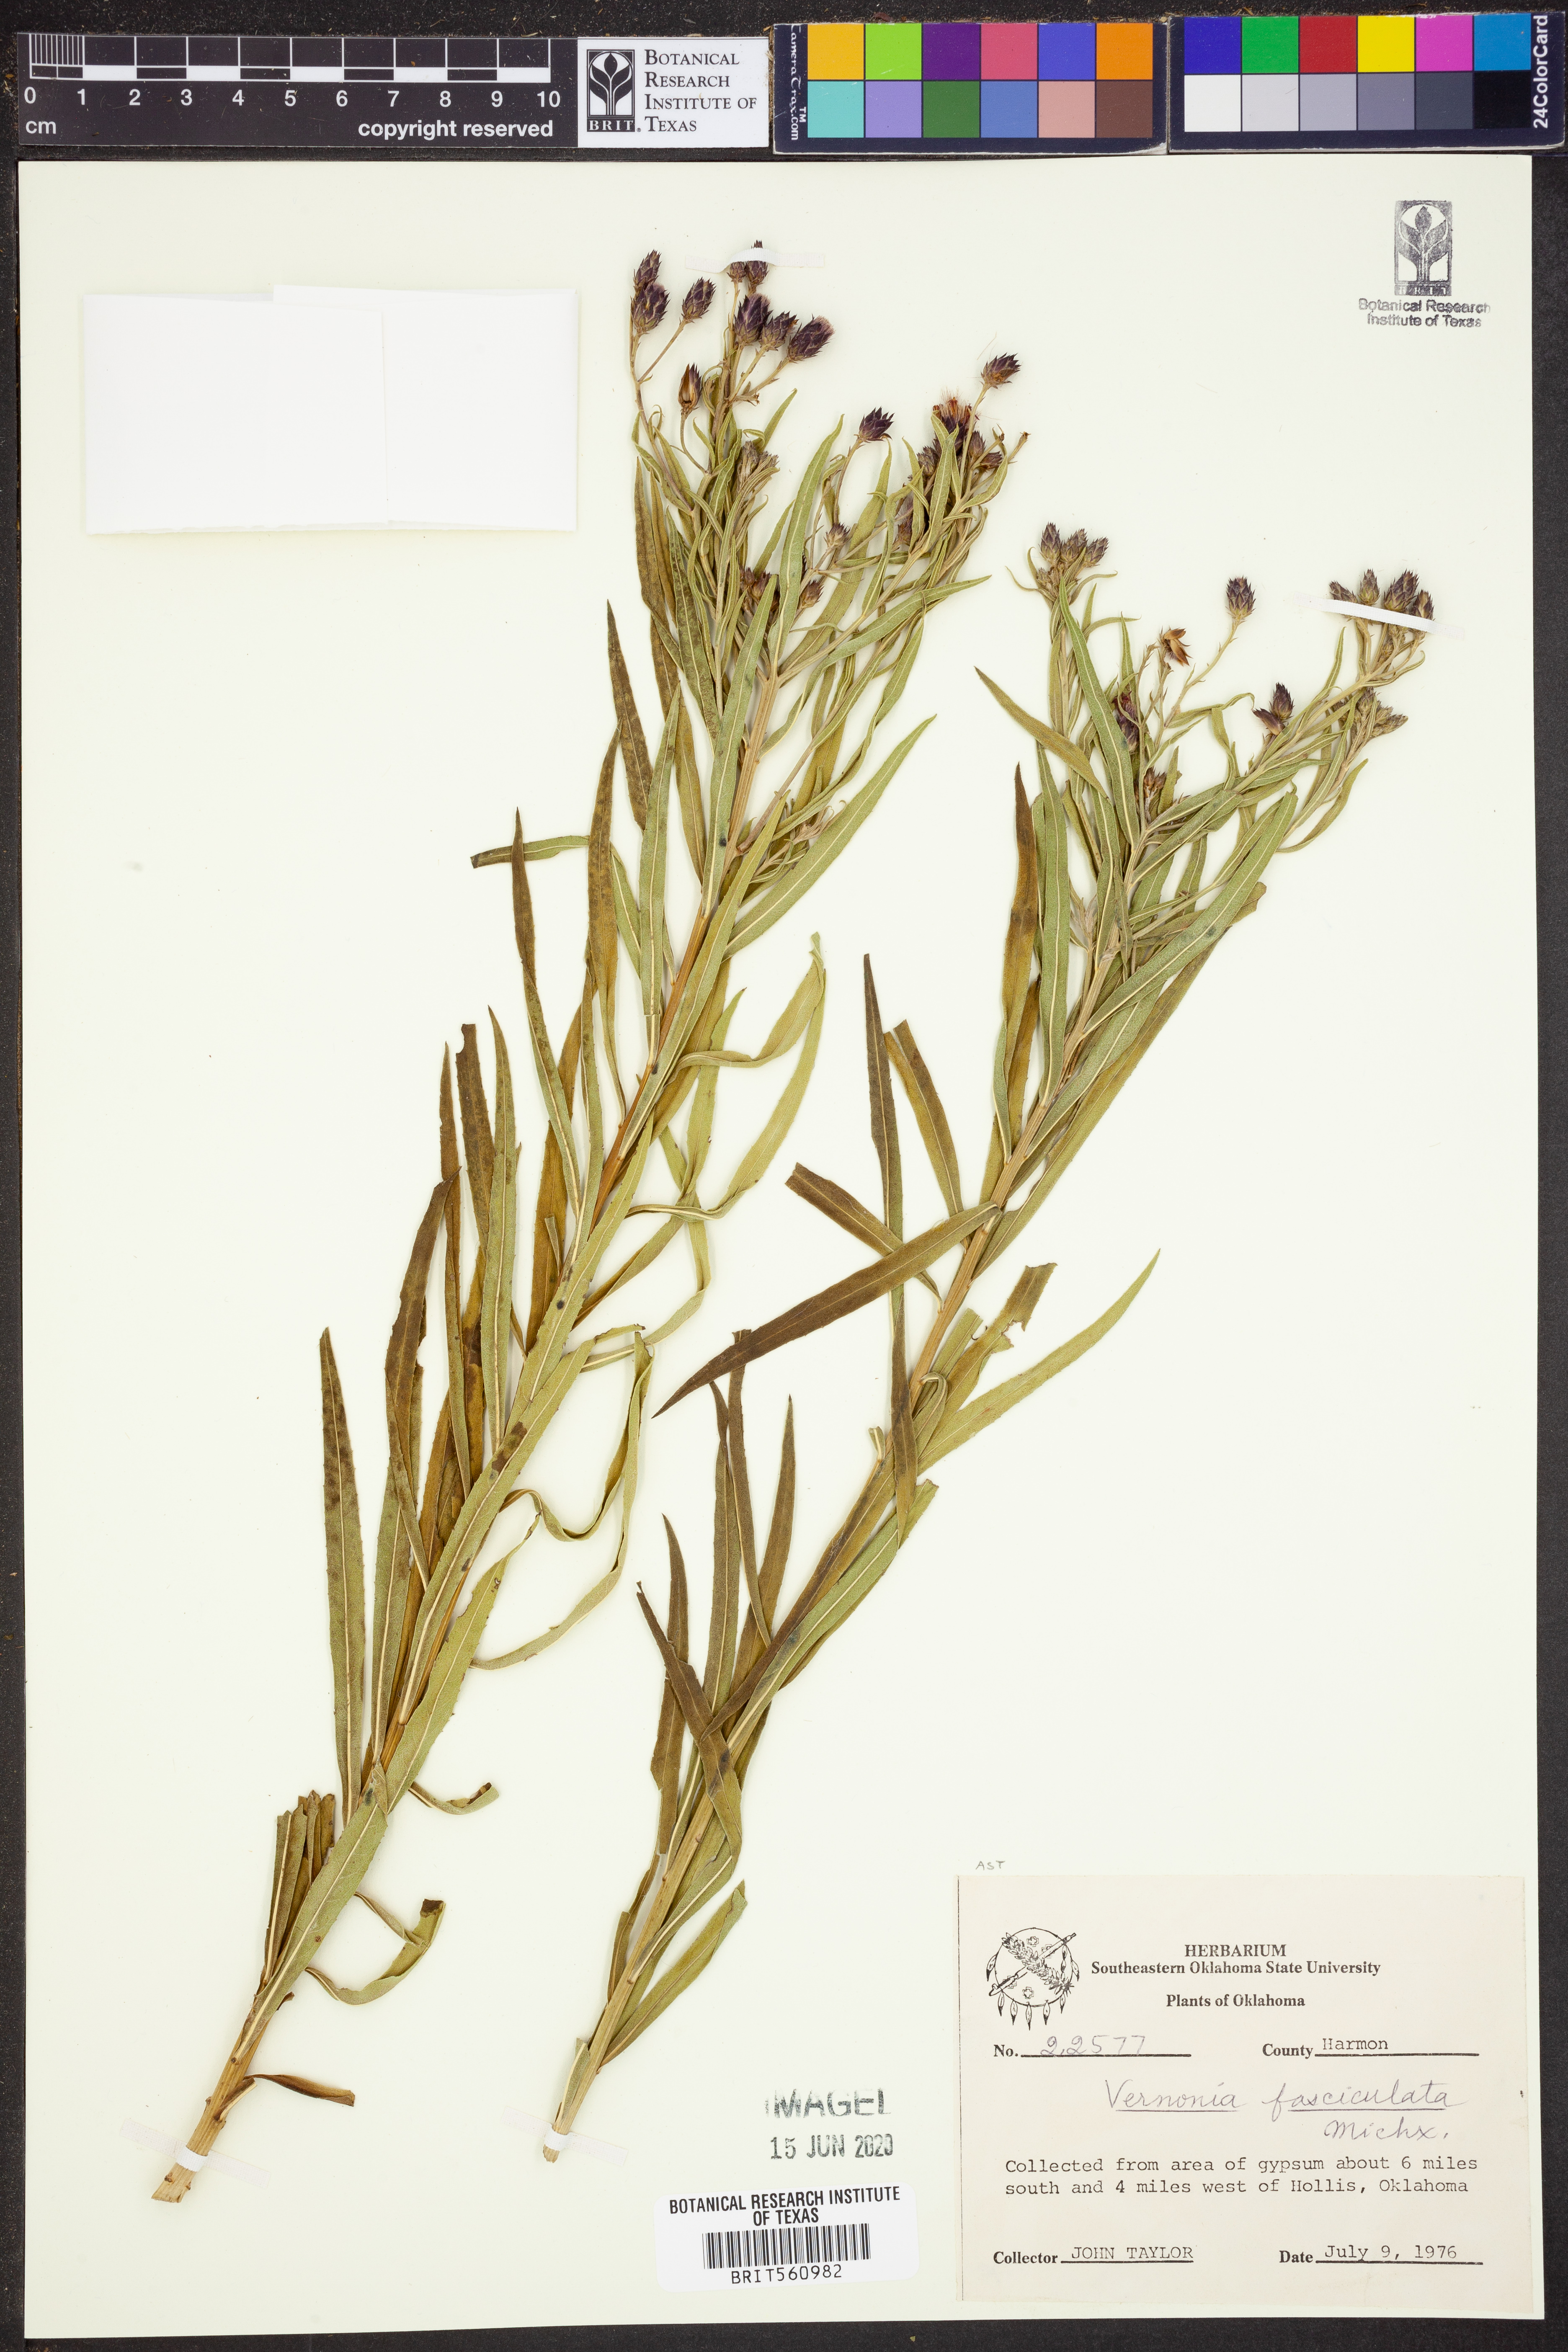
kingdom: Plantae
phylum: Tracheophyta
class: Magnoliopsida
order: Asterales
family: Asteraceae
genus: Vernonia
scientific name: Vernonia fasciculata
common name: Fascicled ironweed
